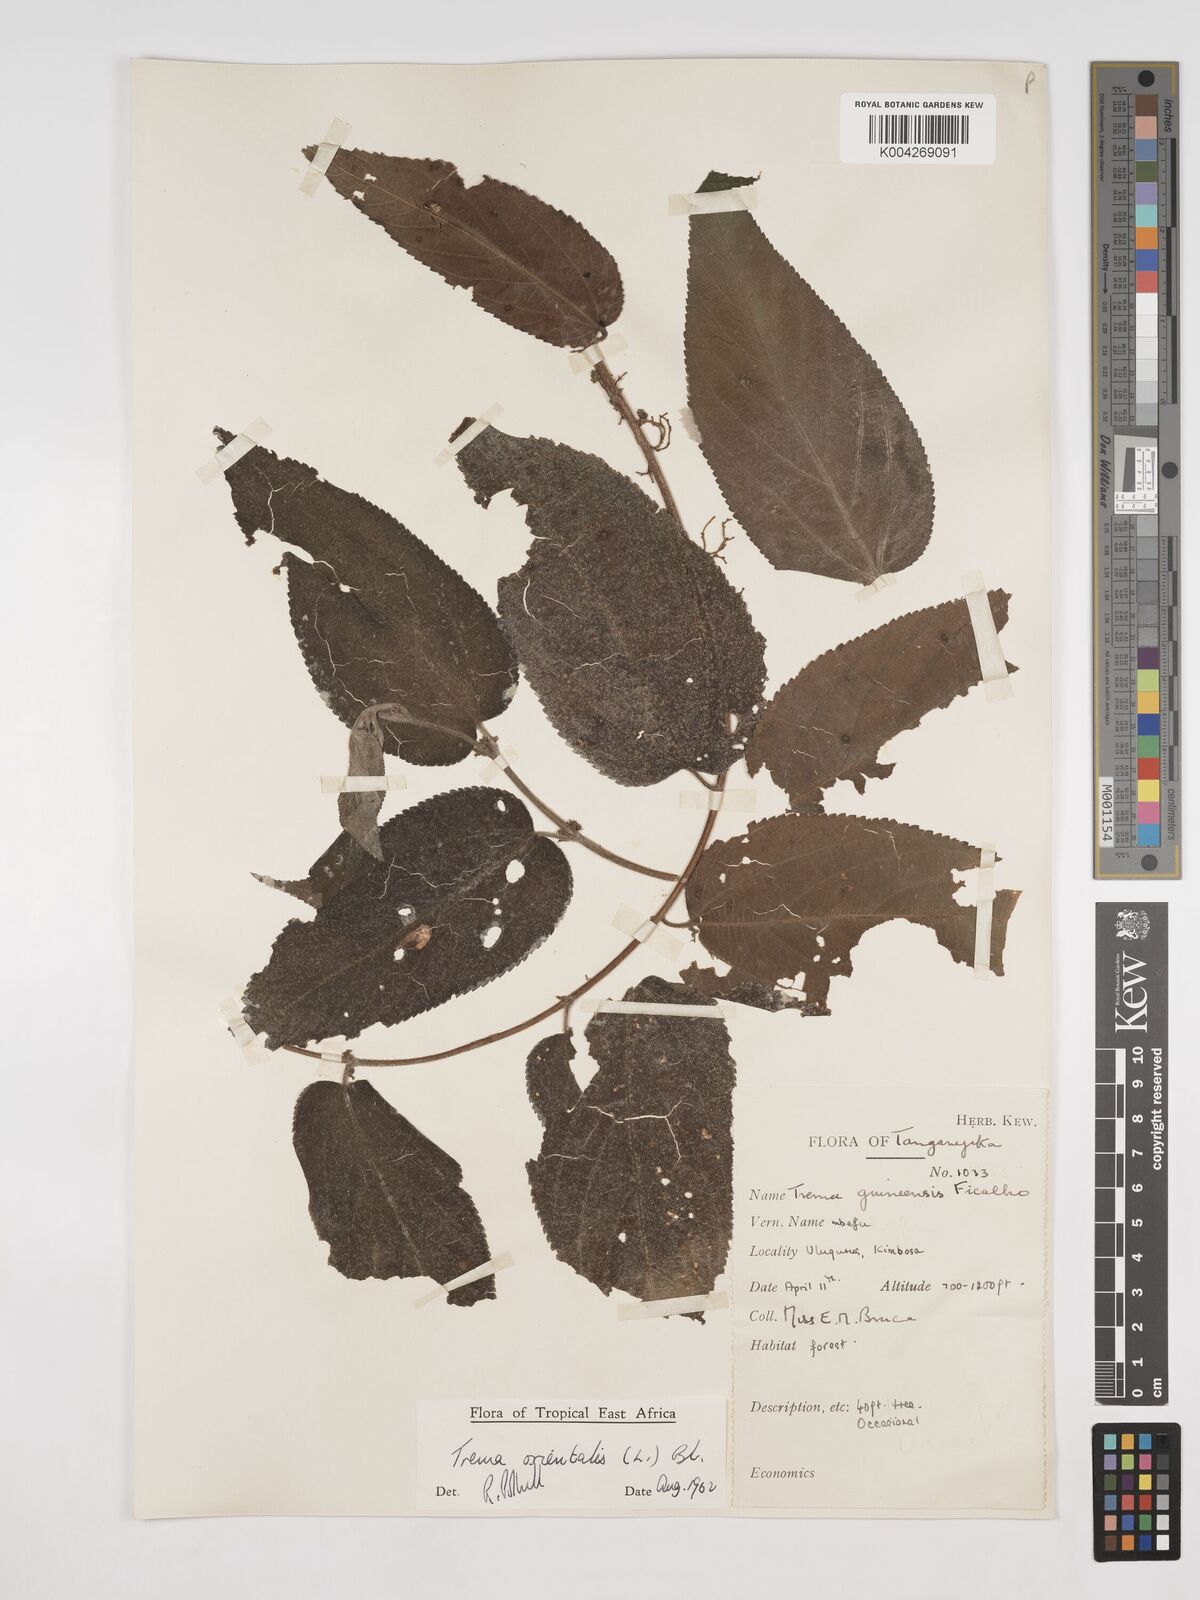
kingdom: Plantae
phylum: Tracheophyta
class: Magnoliopsida
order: Rosales
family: Cannabaceae
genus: Trema
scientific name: Trema orientale
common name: Indian charcoal tree
